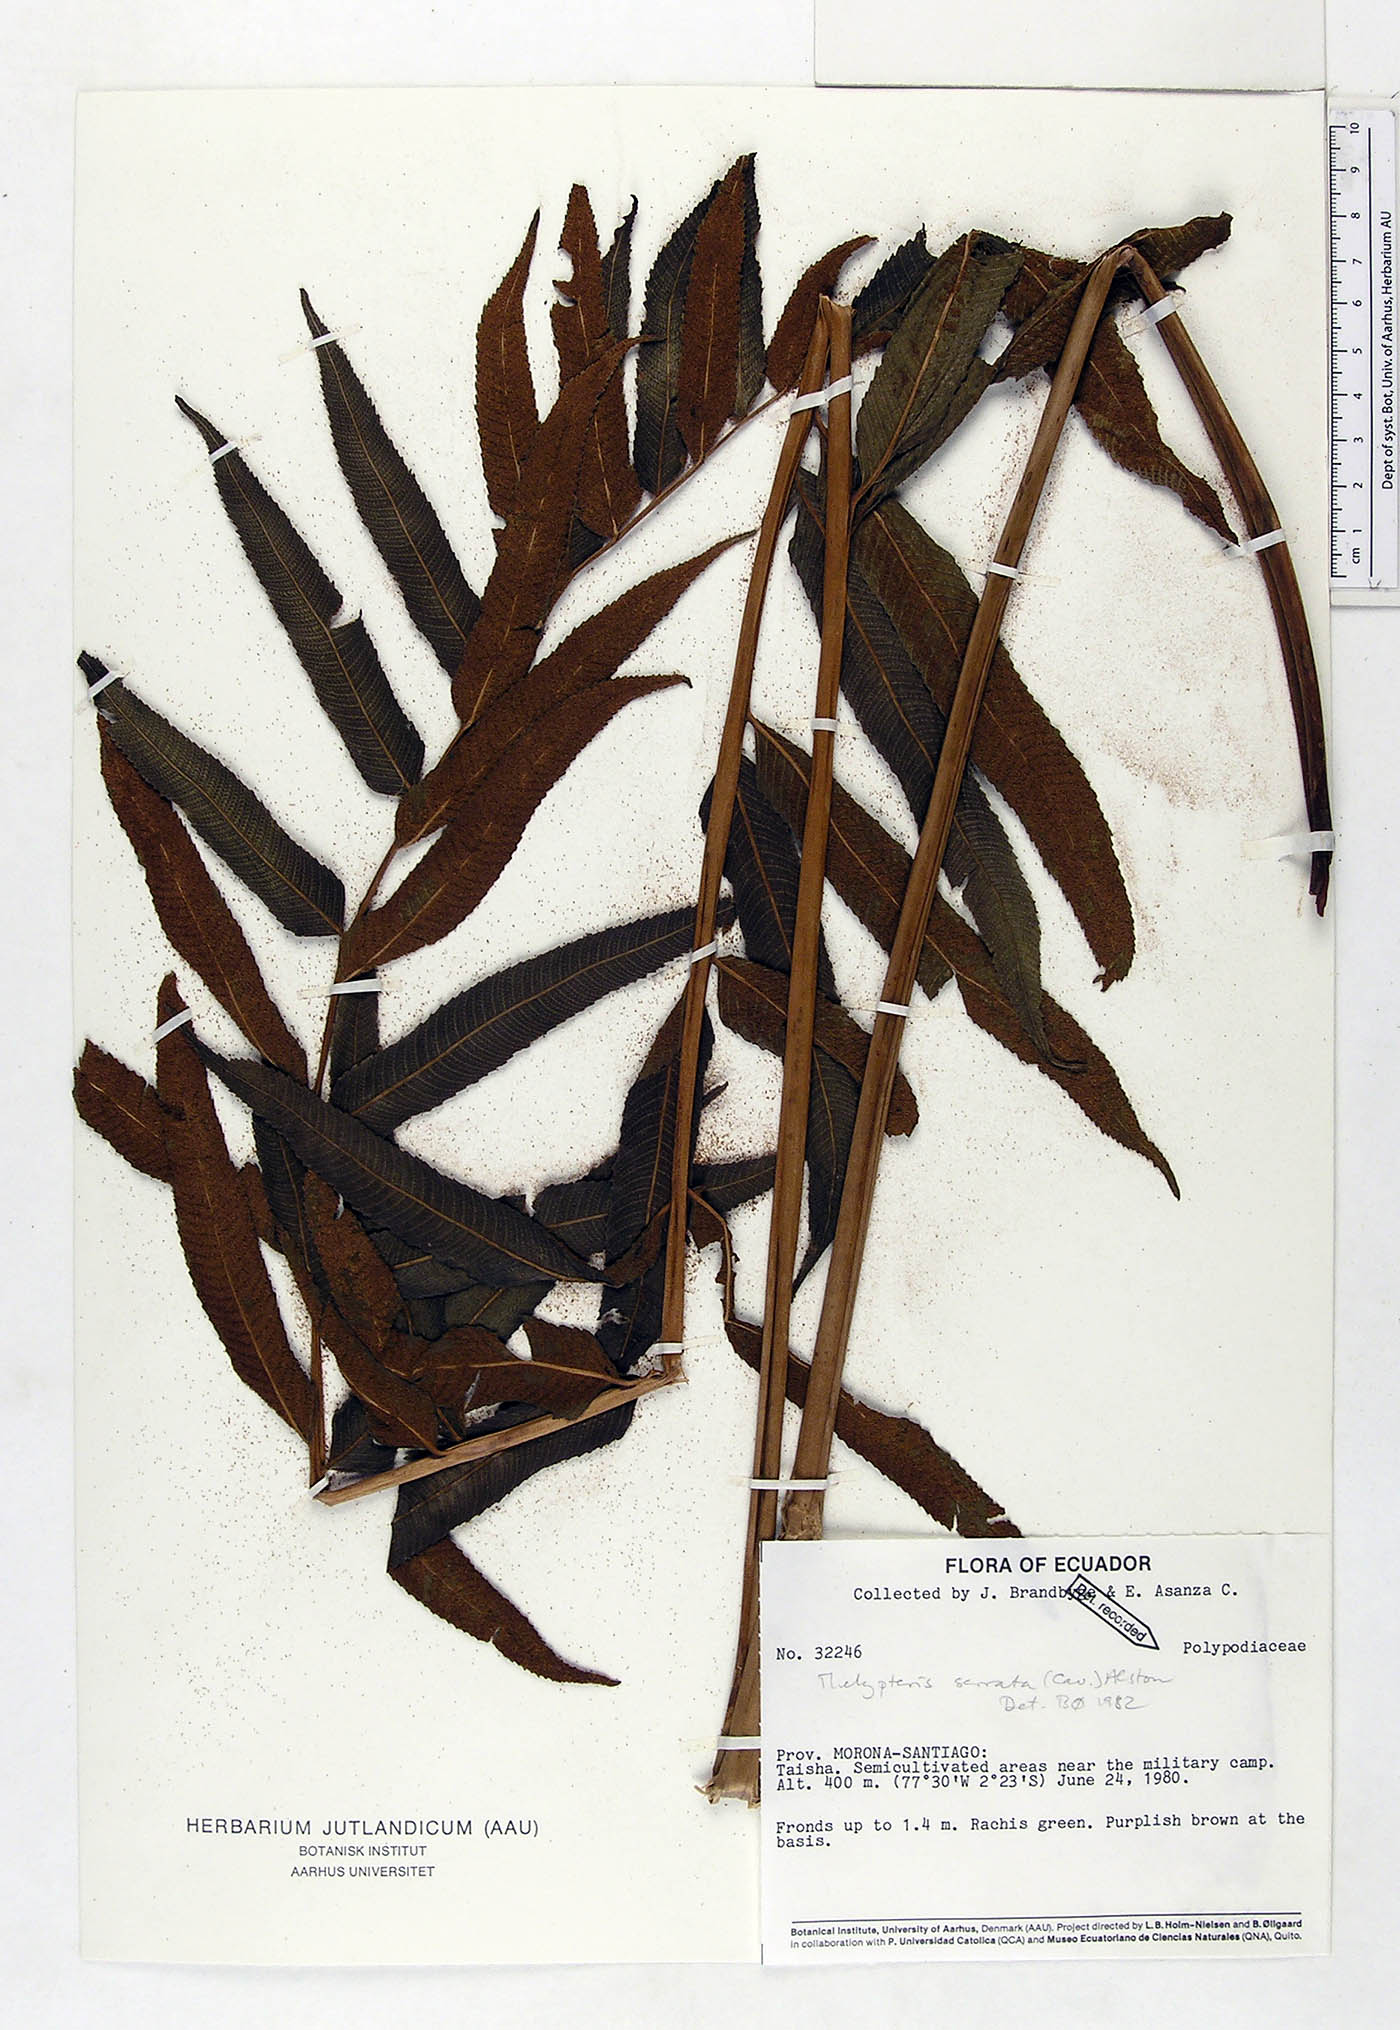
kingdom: Plantae
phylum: Tracheophyta
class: Polypodiopsida
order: Polypodiales
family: Thelypteridaceae
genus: Meniscium
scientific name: Meniscium serratum
